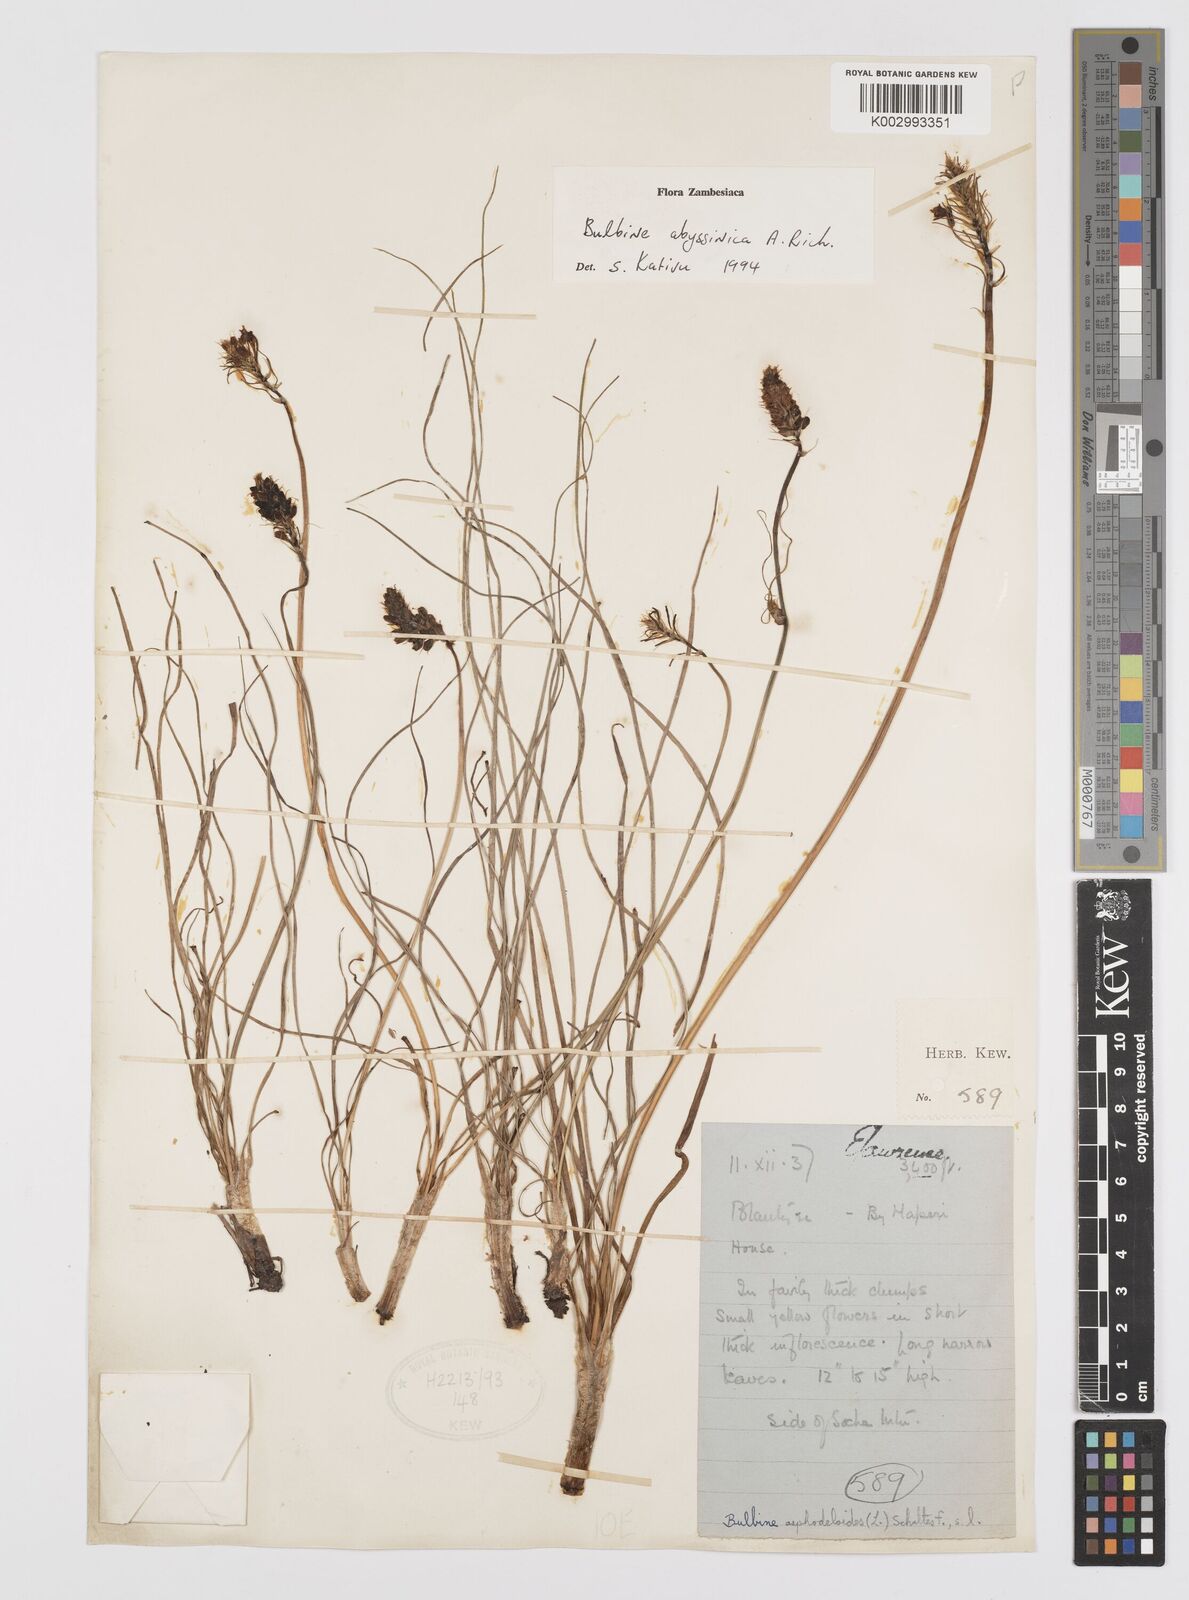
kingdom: Plantae
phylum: Tracheophyta
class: Liliopsida
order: Asparagales
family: Asphodelaceae
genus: Bulbine
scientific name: Bulbine abyssinica
